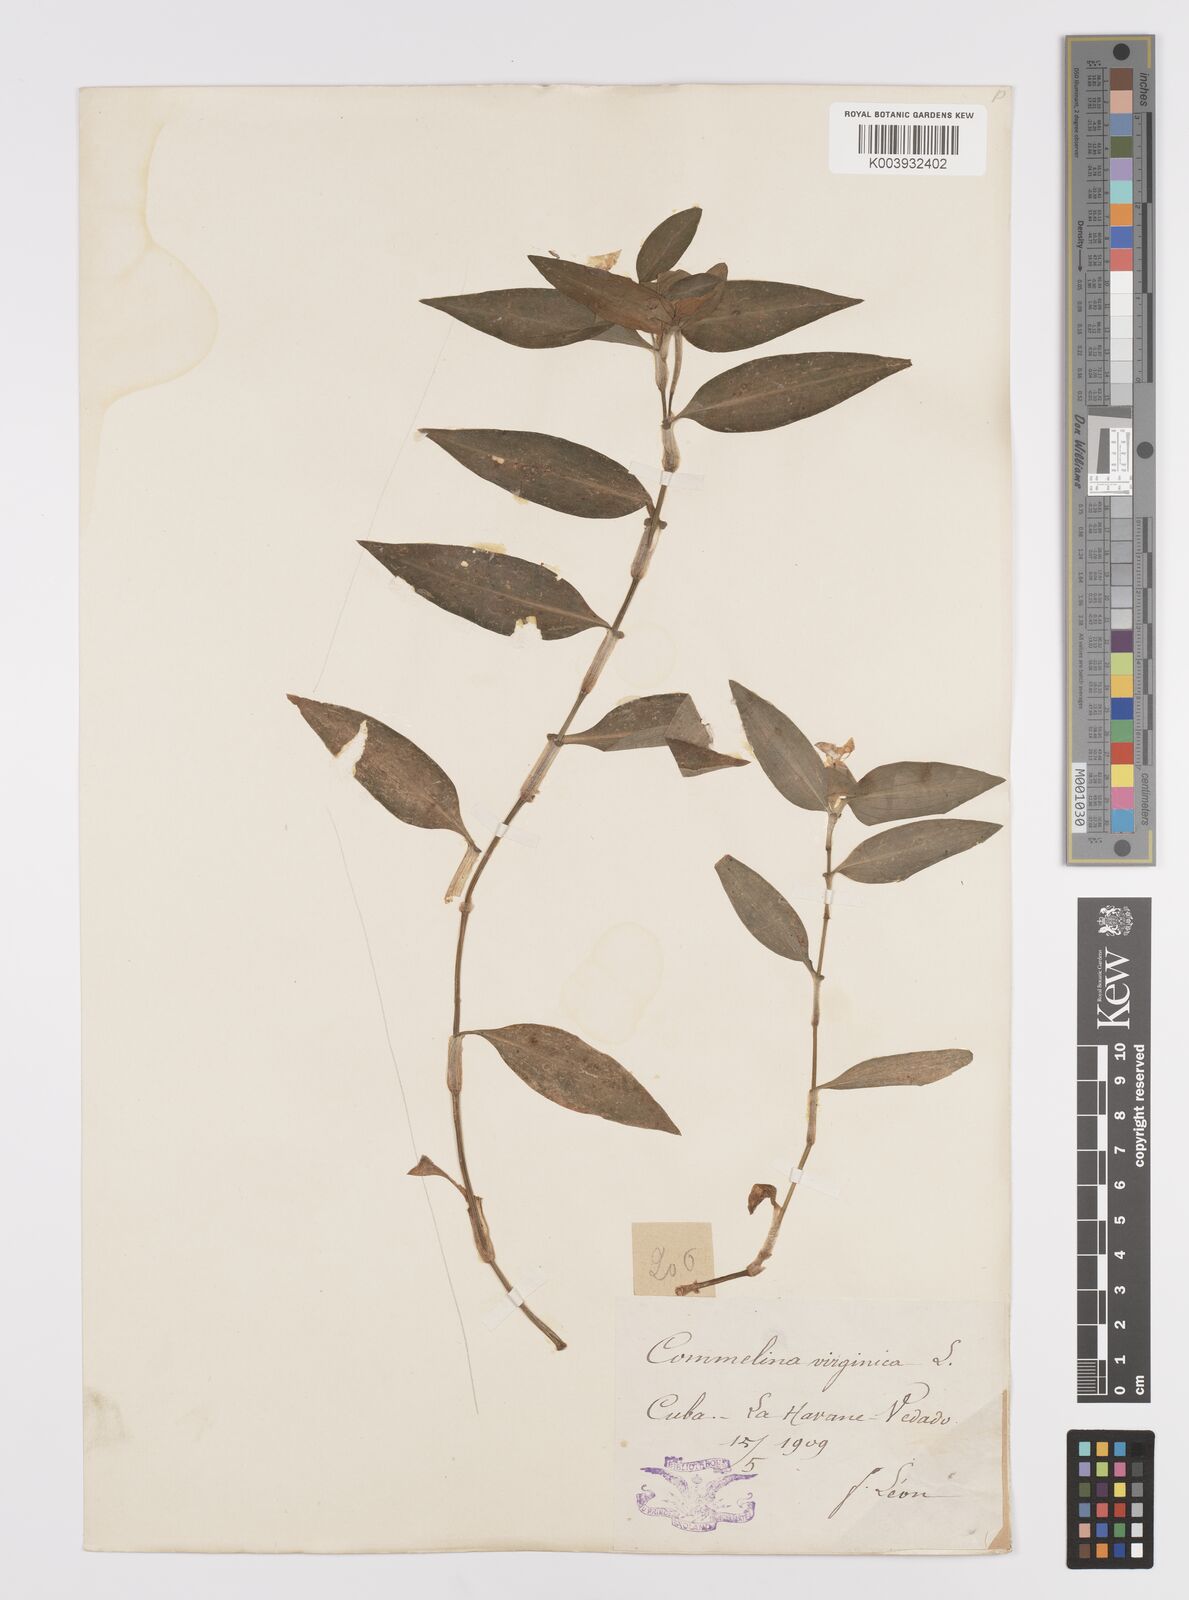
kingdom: Plantae
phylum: Tracheophyta
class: Liliopsida
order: Commelinales
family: Commelinaceae
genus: Commelina
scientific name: Commelina virginica
